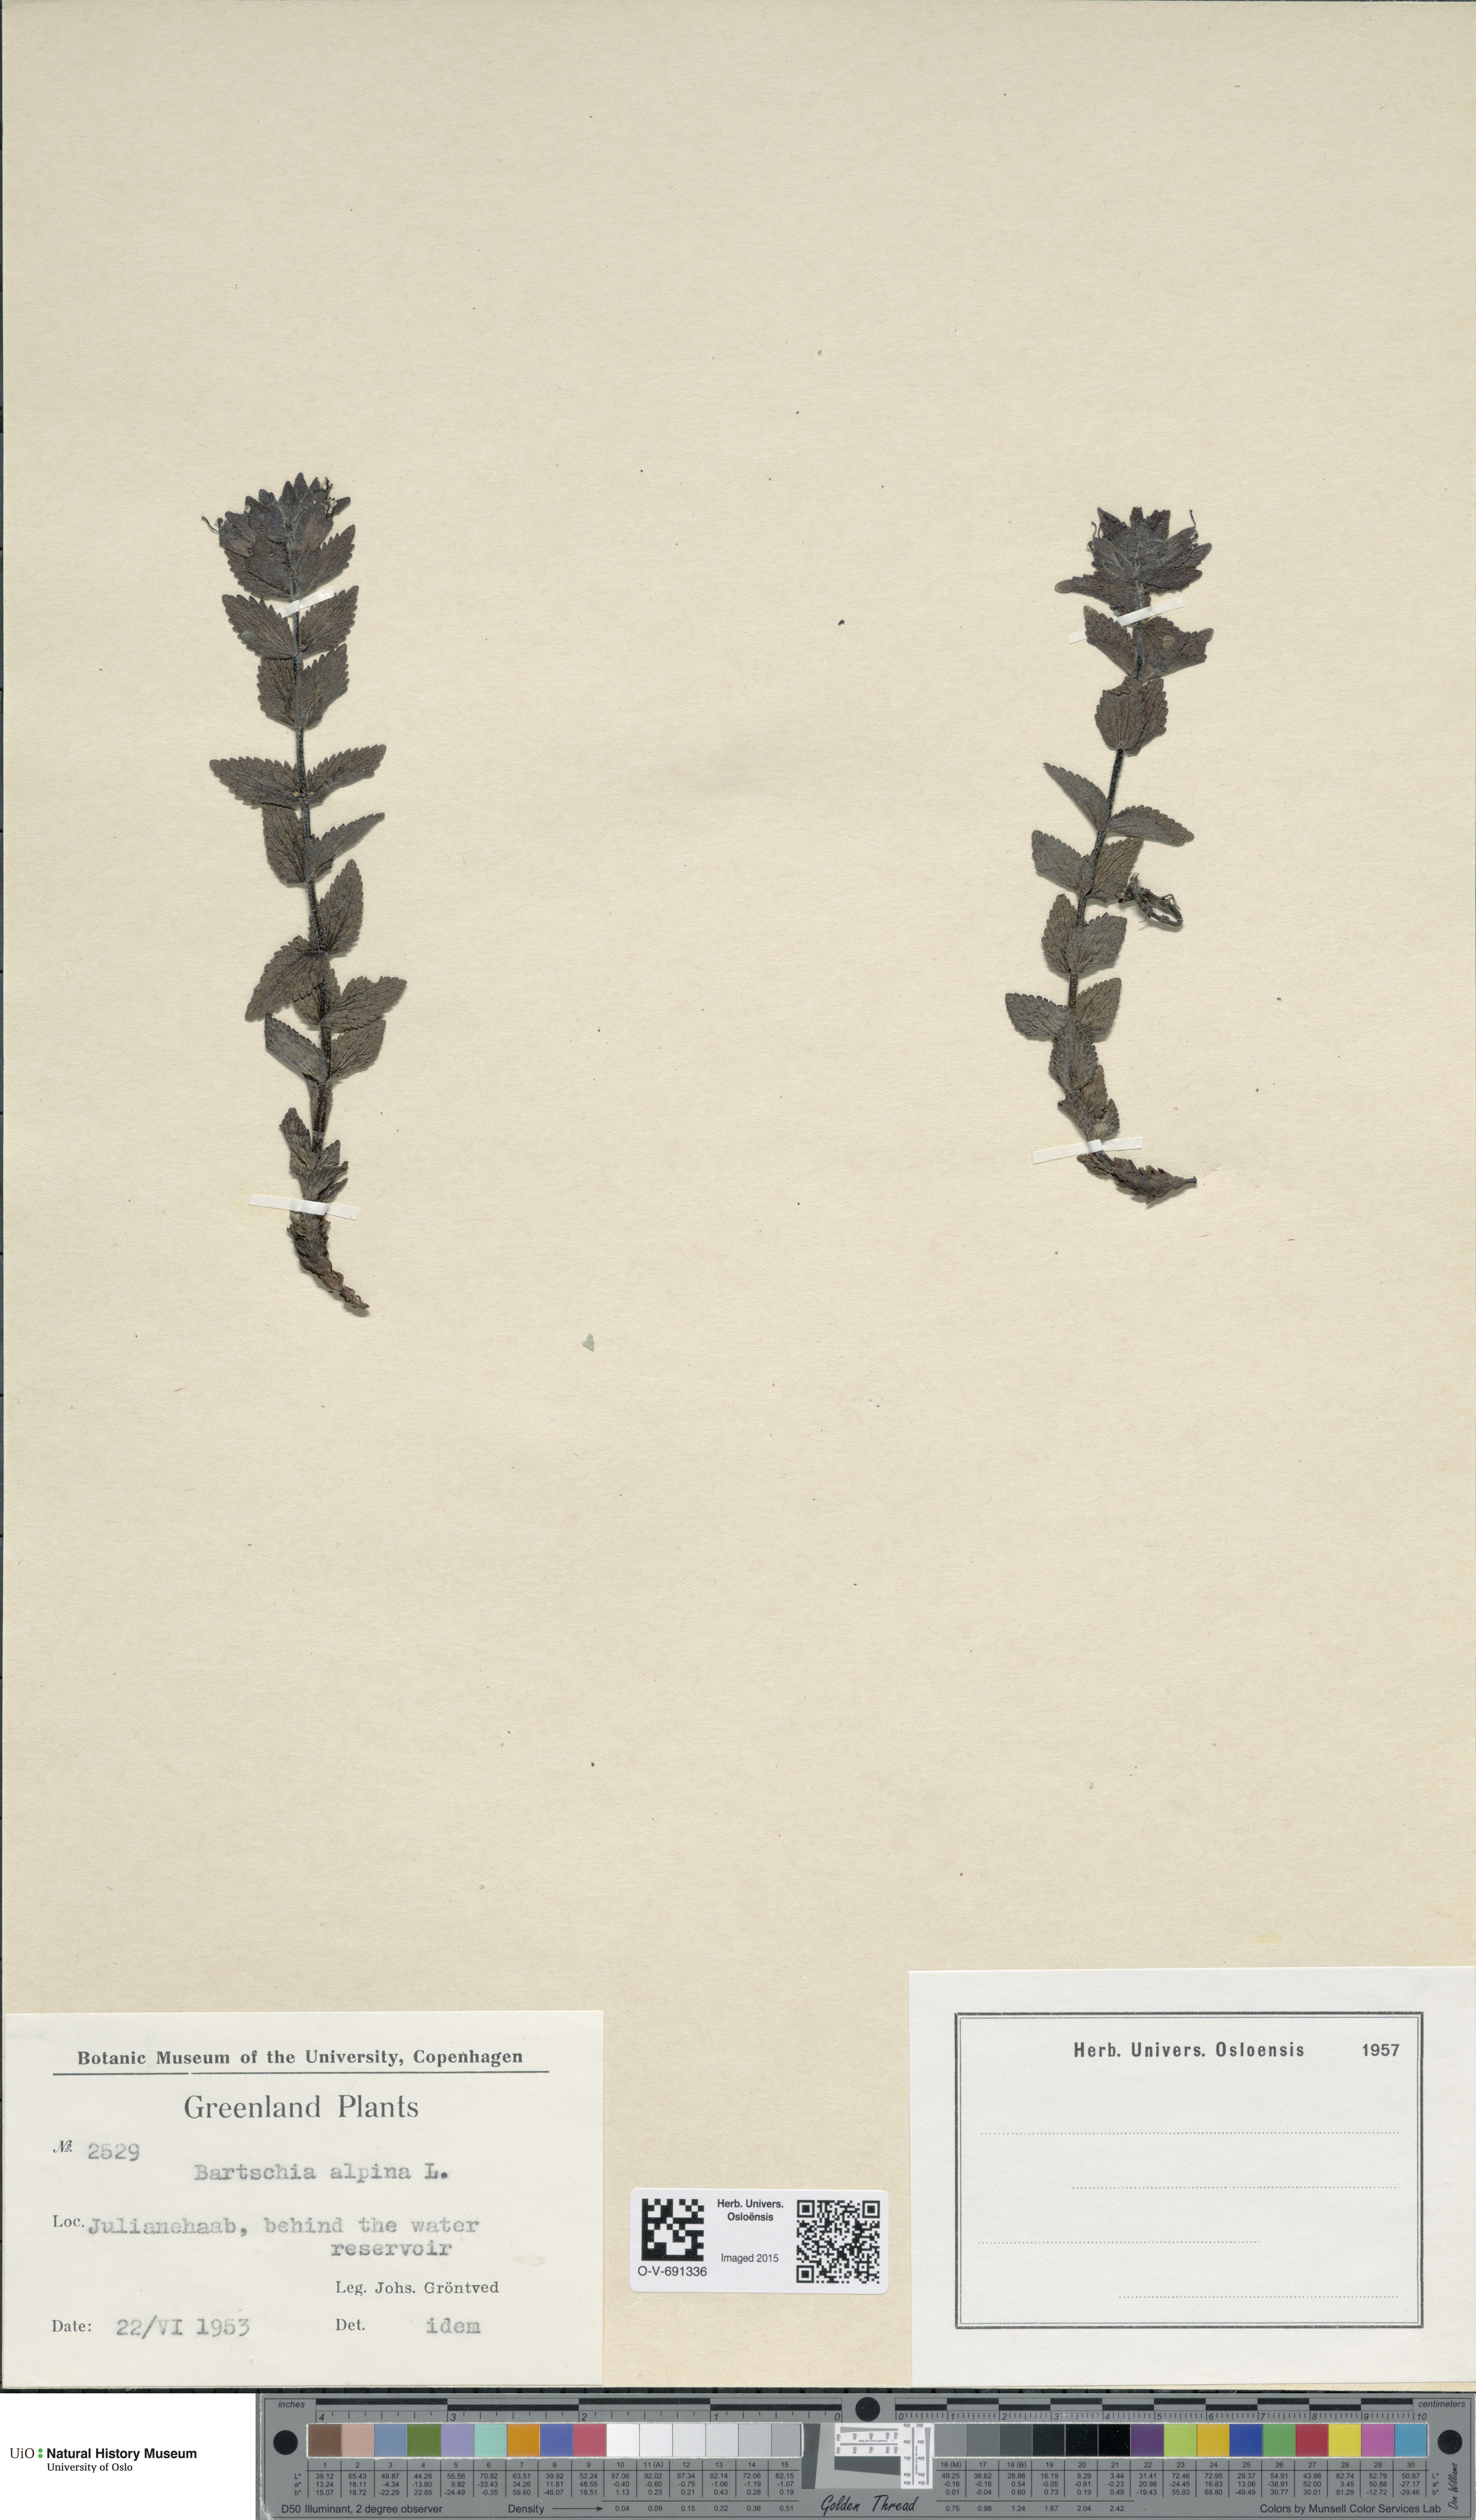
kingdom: Plantae
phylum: Tracheophyta
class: Magnoliopsida
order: Lamiales
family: Orobanchaceae
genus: Bartsia
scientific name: Bartsia alpina
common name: Alpine bartsia
